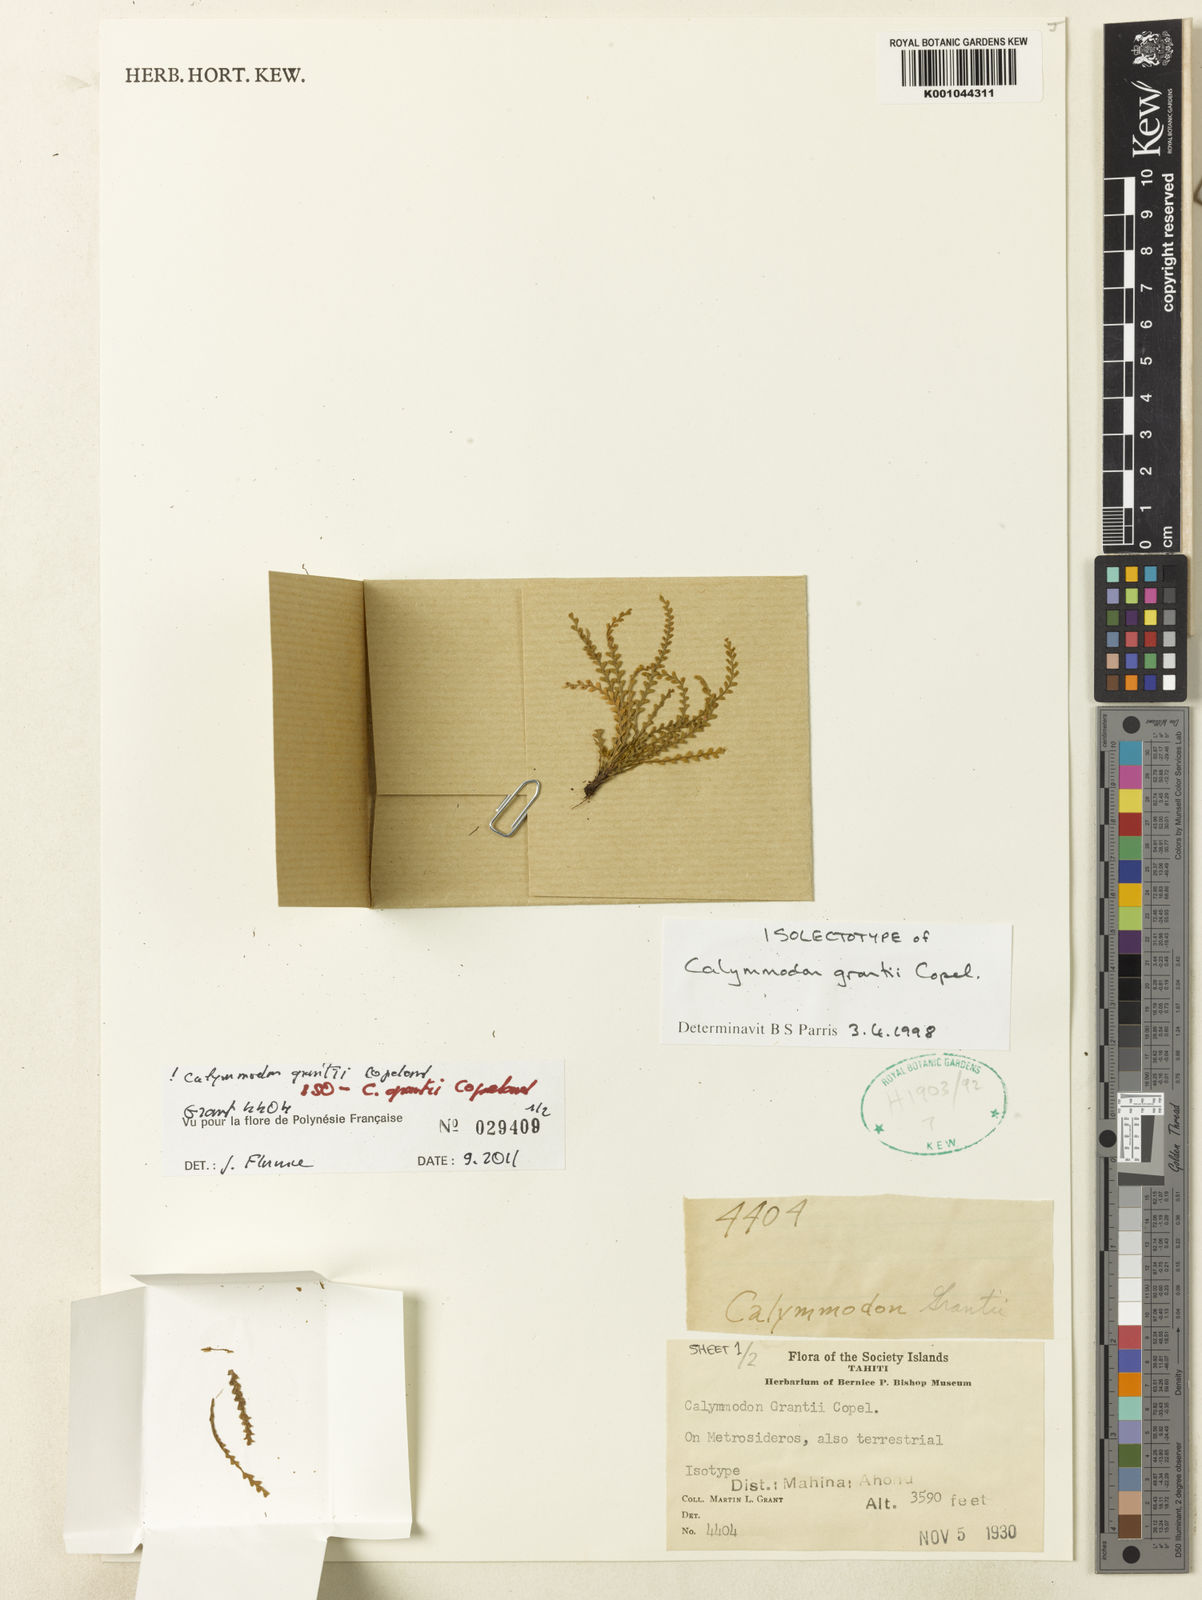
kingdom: Plantae
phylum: Tracheophyta
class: Polypodiopsida
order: Polypodiales
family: Polypodiaceae
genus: Calymmodon
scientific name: Calymmodon grantii
